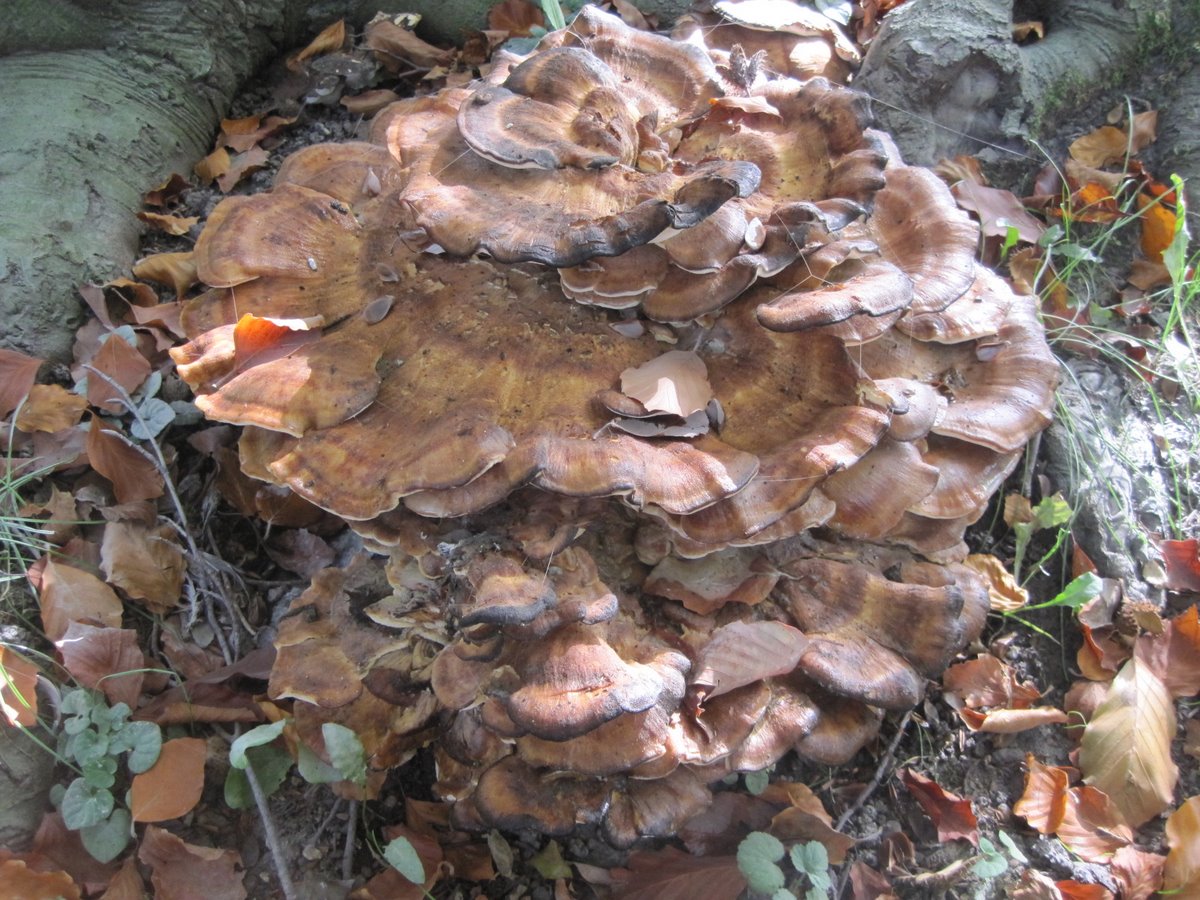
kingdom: Fungi
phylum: Basidiomycota
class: Agaricomycetes
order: Polyporales
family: Meripilaceae
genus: Meripilus
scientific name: Meripilus giganteus
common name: kæmpeporesvamp
